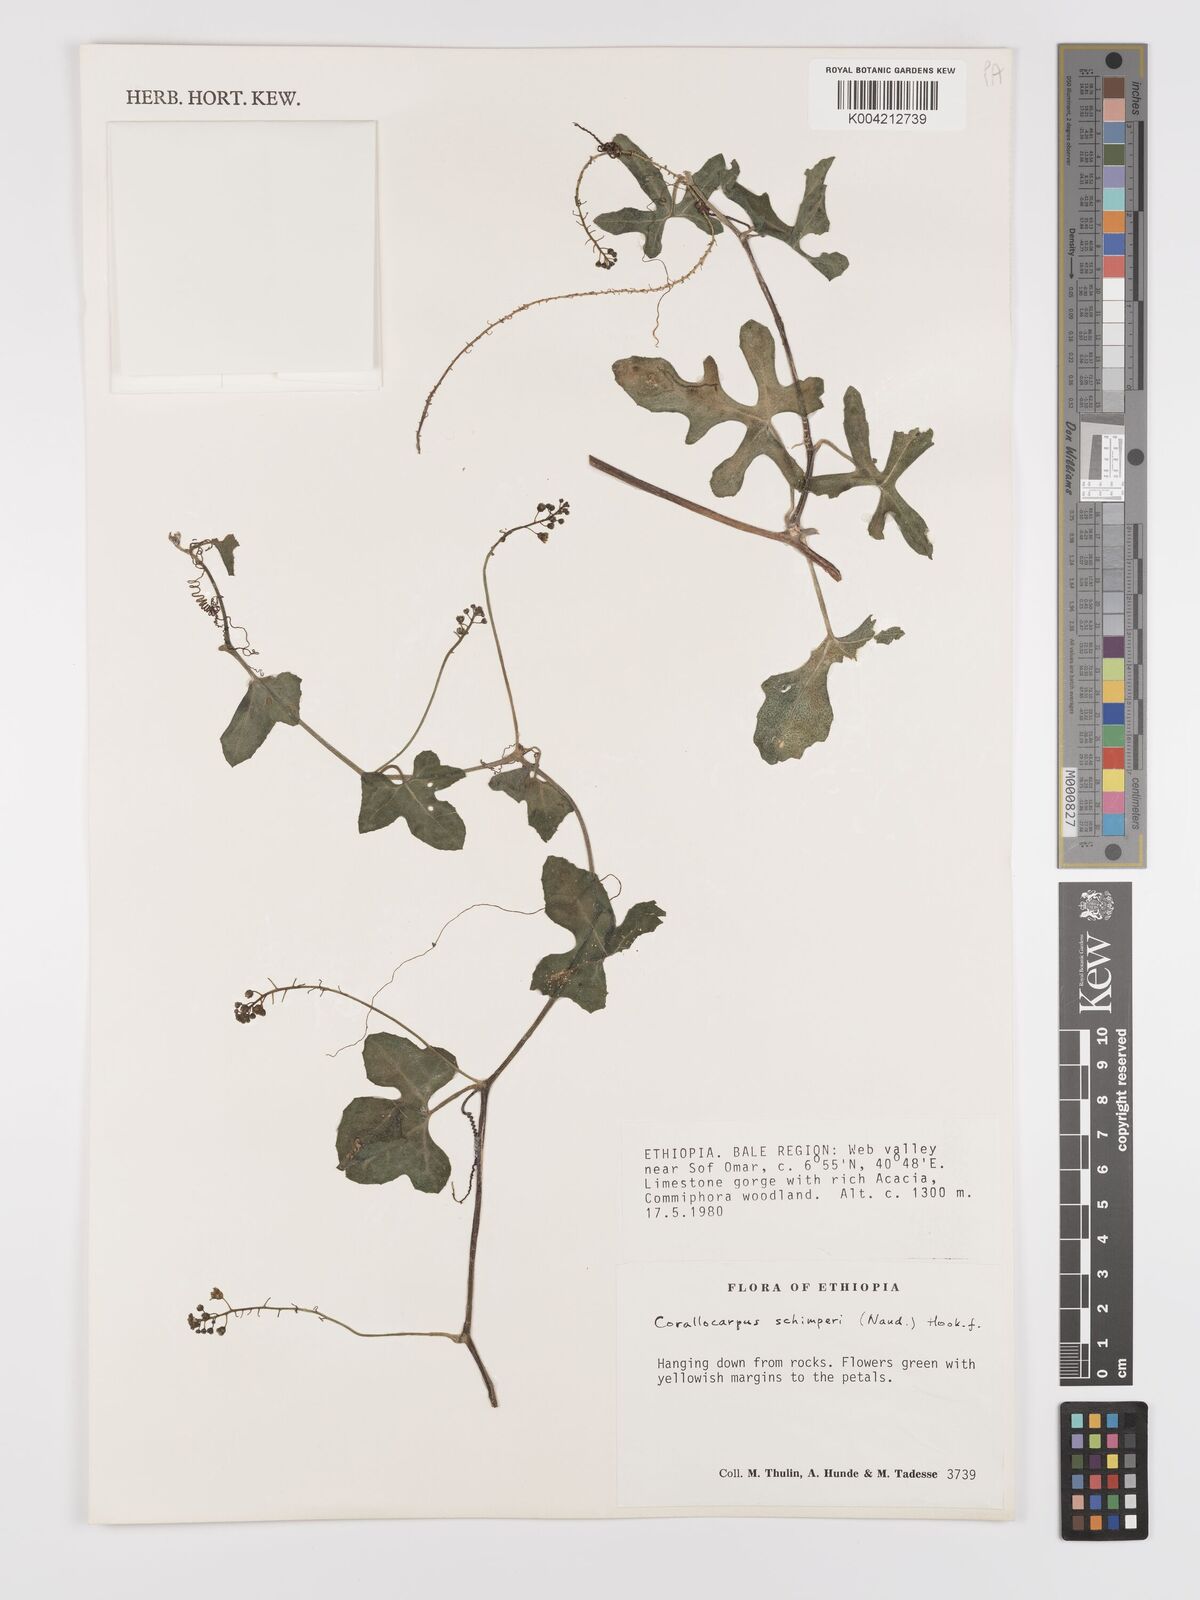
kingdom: Plantae
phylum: Tracheophyta
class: Magnoliopsida
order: Cucurbitales
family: Cucurbitaceae
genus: Corallocarpus
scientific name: Corallocarpus schimperi
